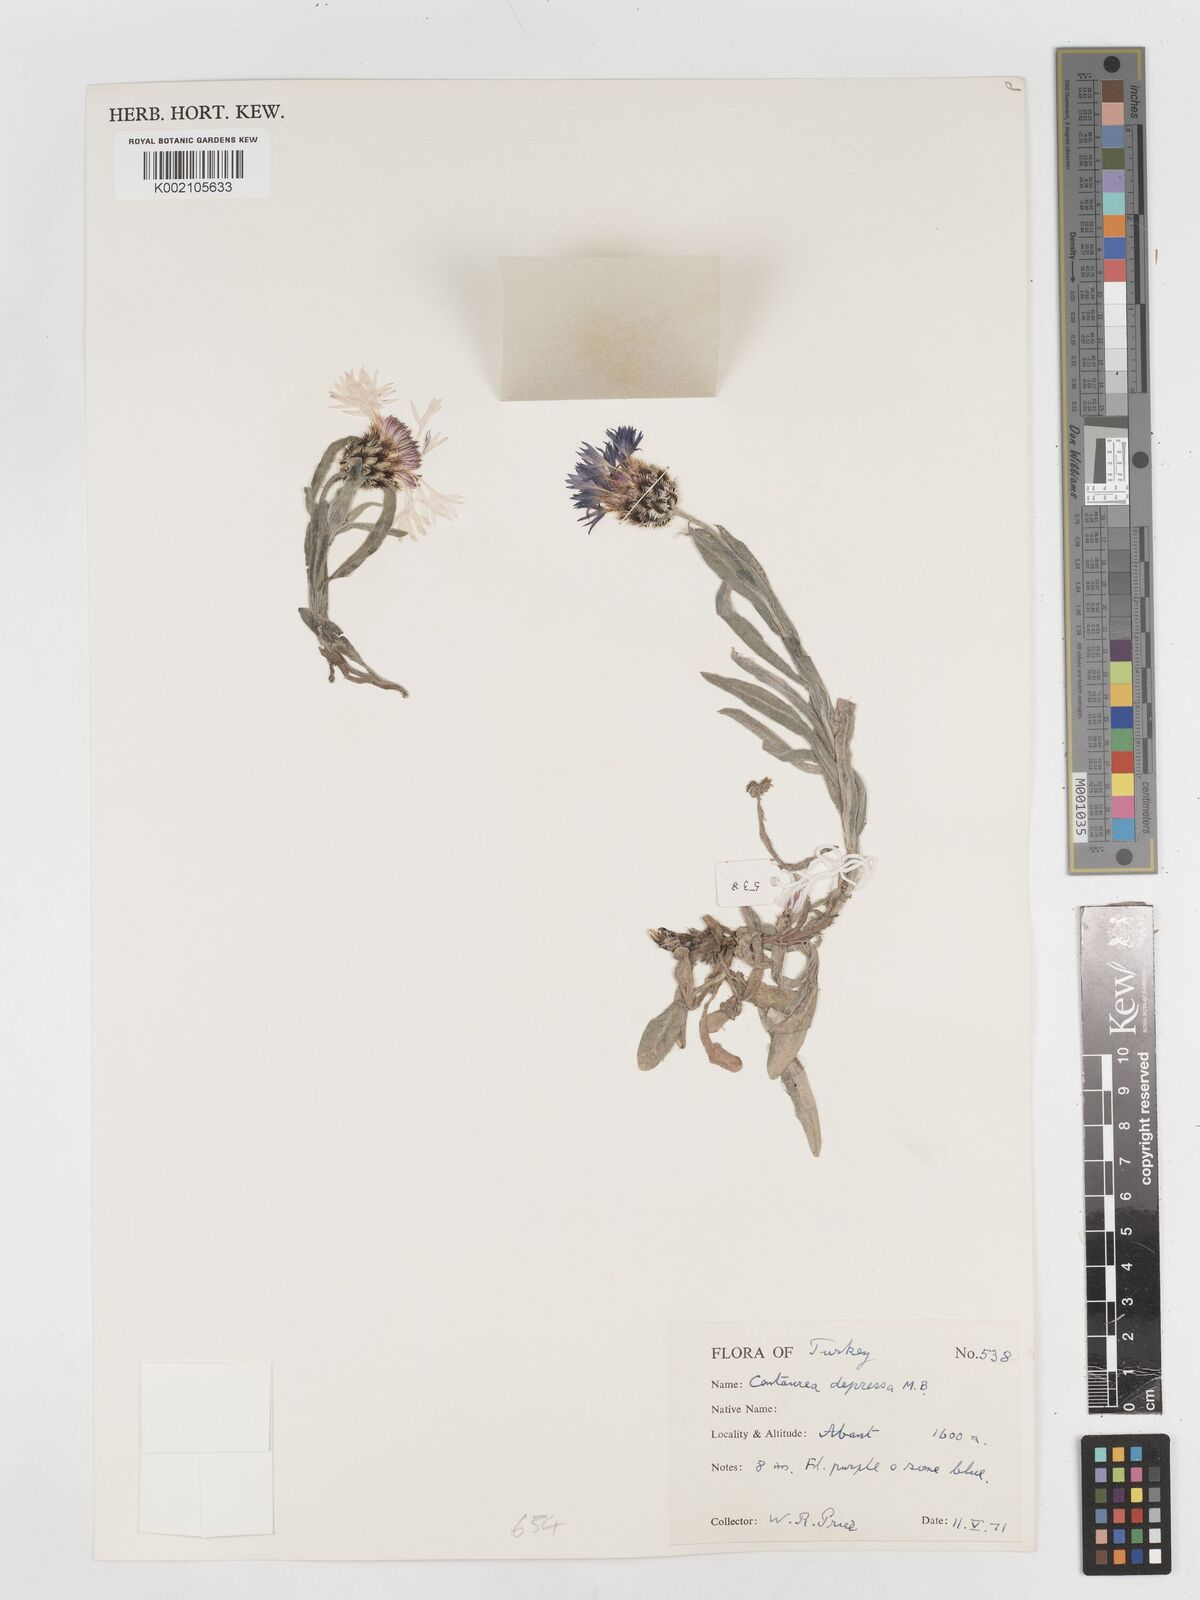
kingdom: Plantae
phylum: Tracheophyta
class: Magnoliopsida
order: Asterales
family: Asteraceae
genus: Centaurea
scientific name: Centaurea depressa
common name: Iranian knapweed
